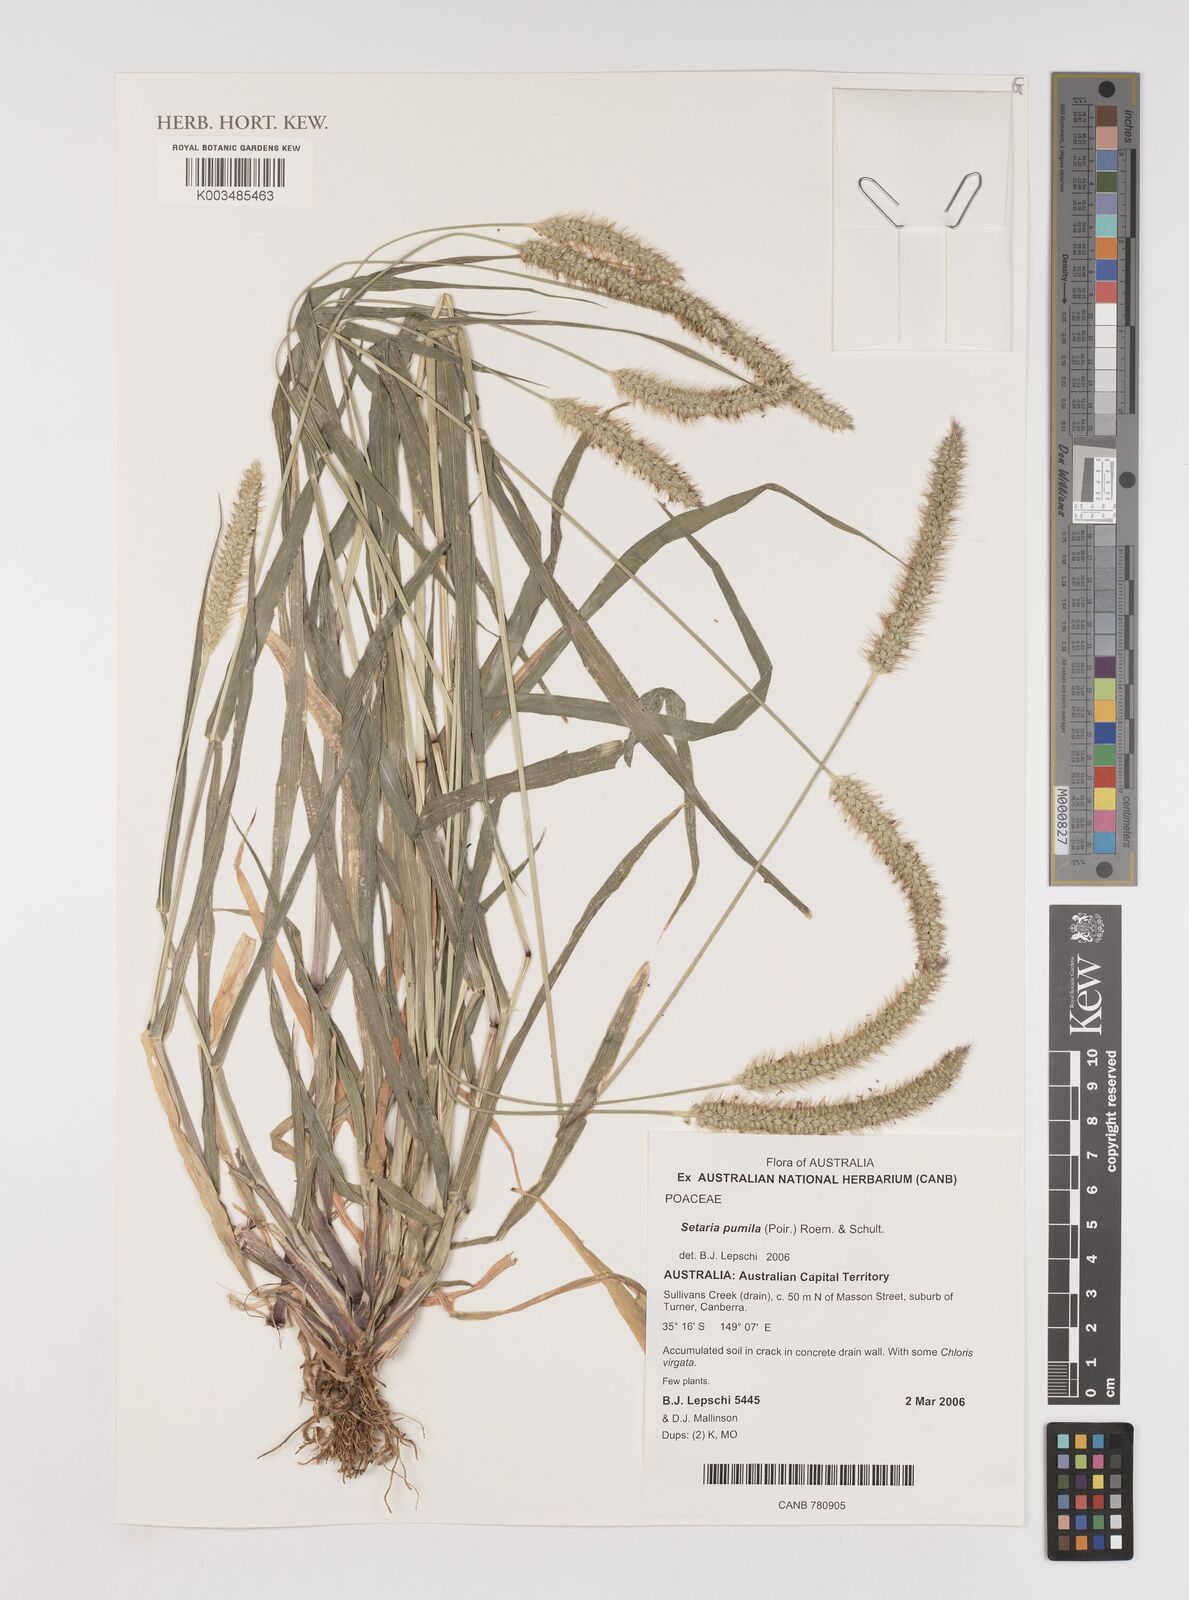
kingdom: Plantae
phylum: Tracheophyta
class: Liliopsida
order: Poales
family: Poaceae
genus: Setaria
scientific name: Setaria pumila
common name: Yellow bristle-grass
